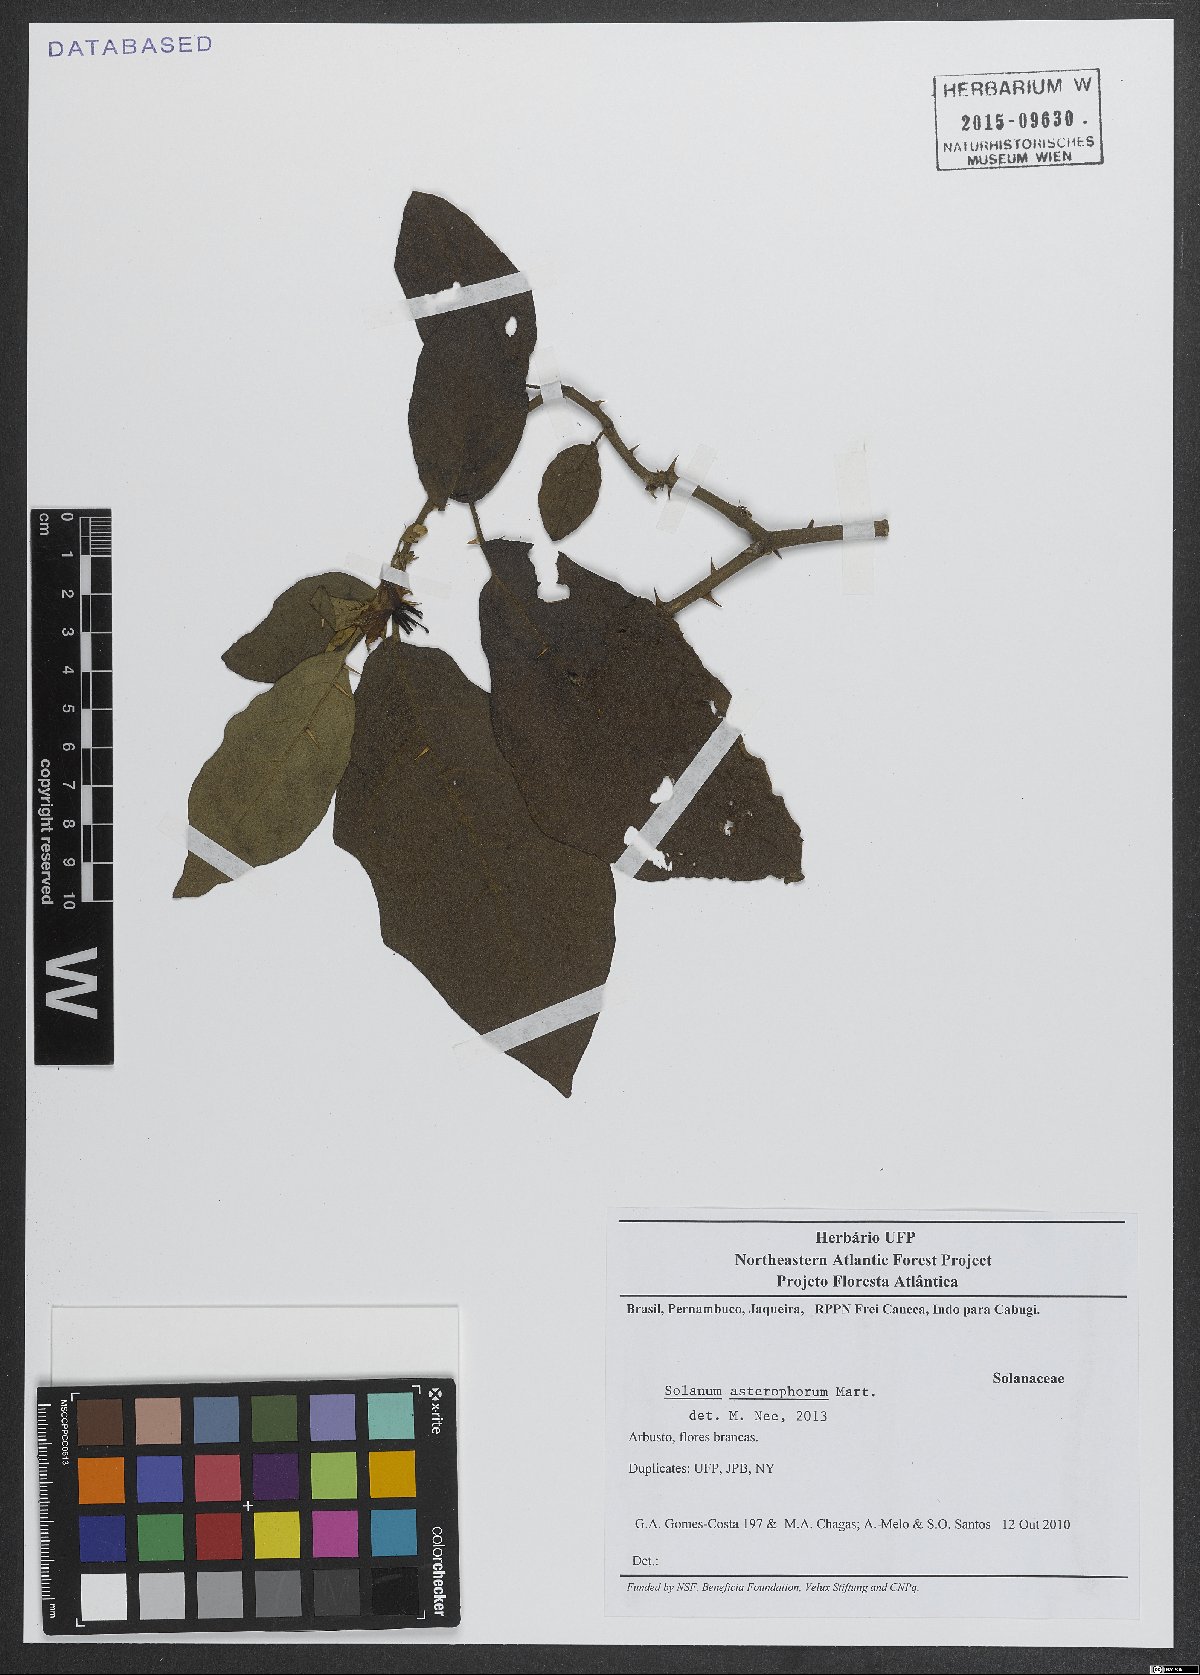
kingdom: Plantae
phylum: Tracheophyta
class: Magnoliopsida
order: Solanales
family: Solanaceae
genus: Solanum
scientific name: Solanum asterophorum
